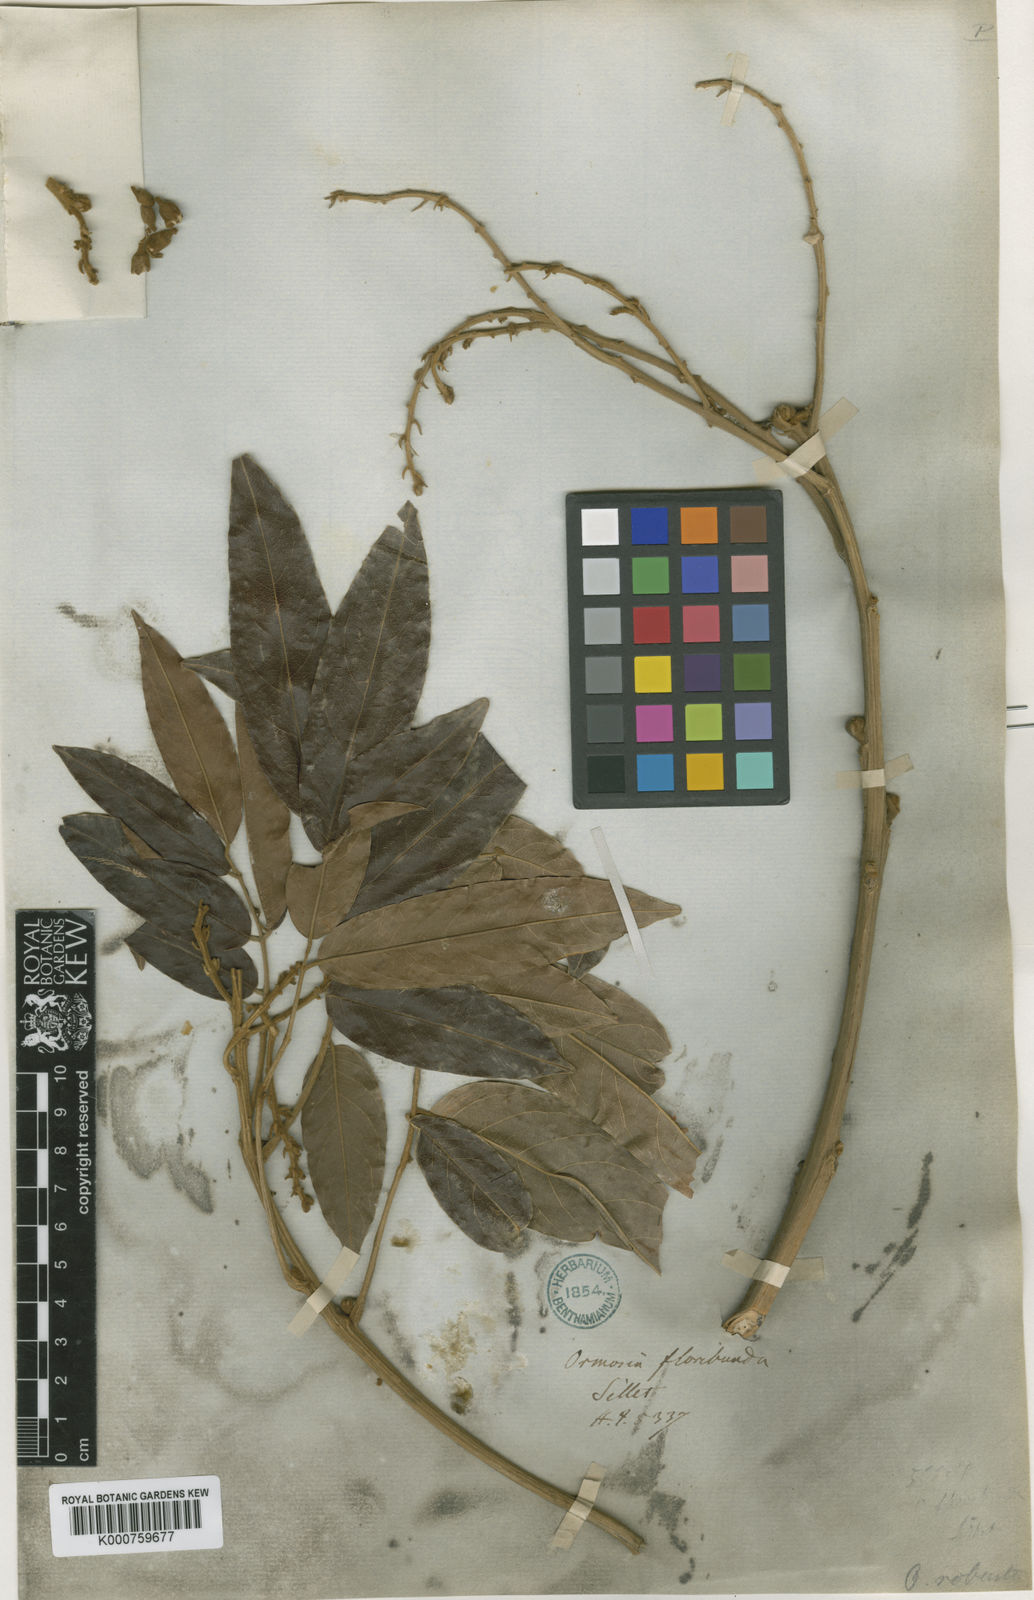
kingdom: Plantae
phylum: Tracheophyta
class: Magnoliopsida
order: Fabales
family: Fabaceae
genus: Ormosia
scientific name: Ormosia robusta
